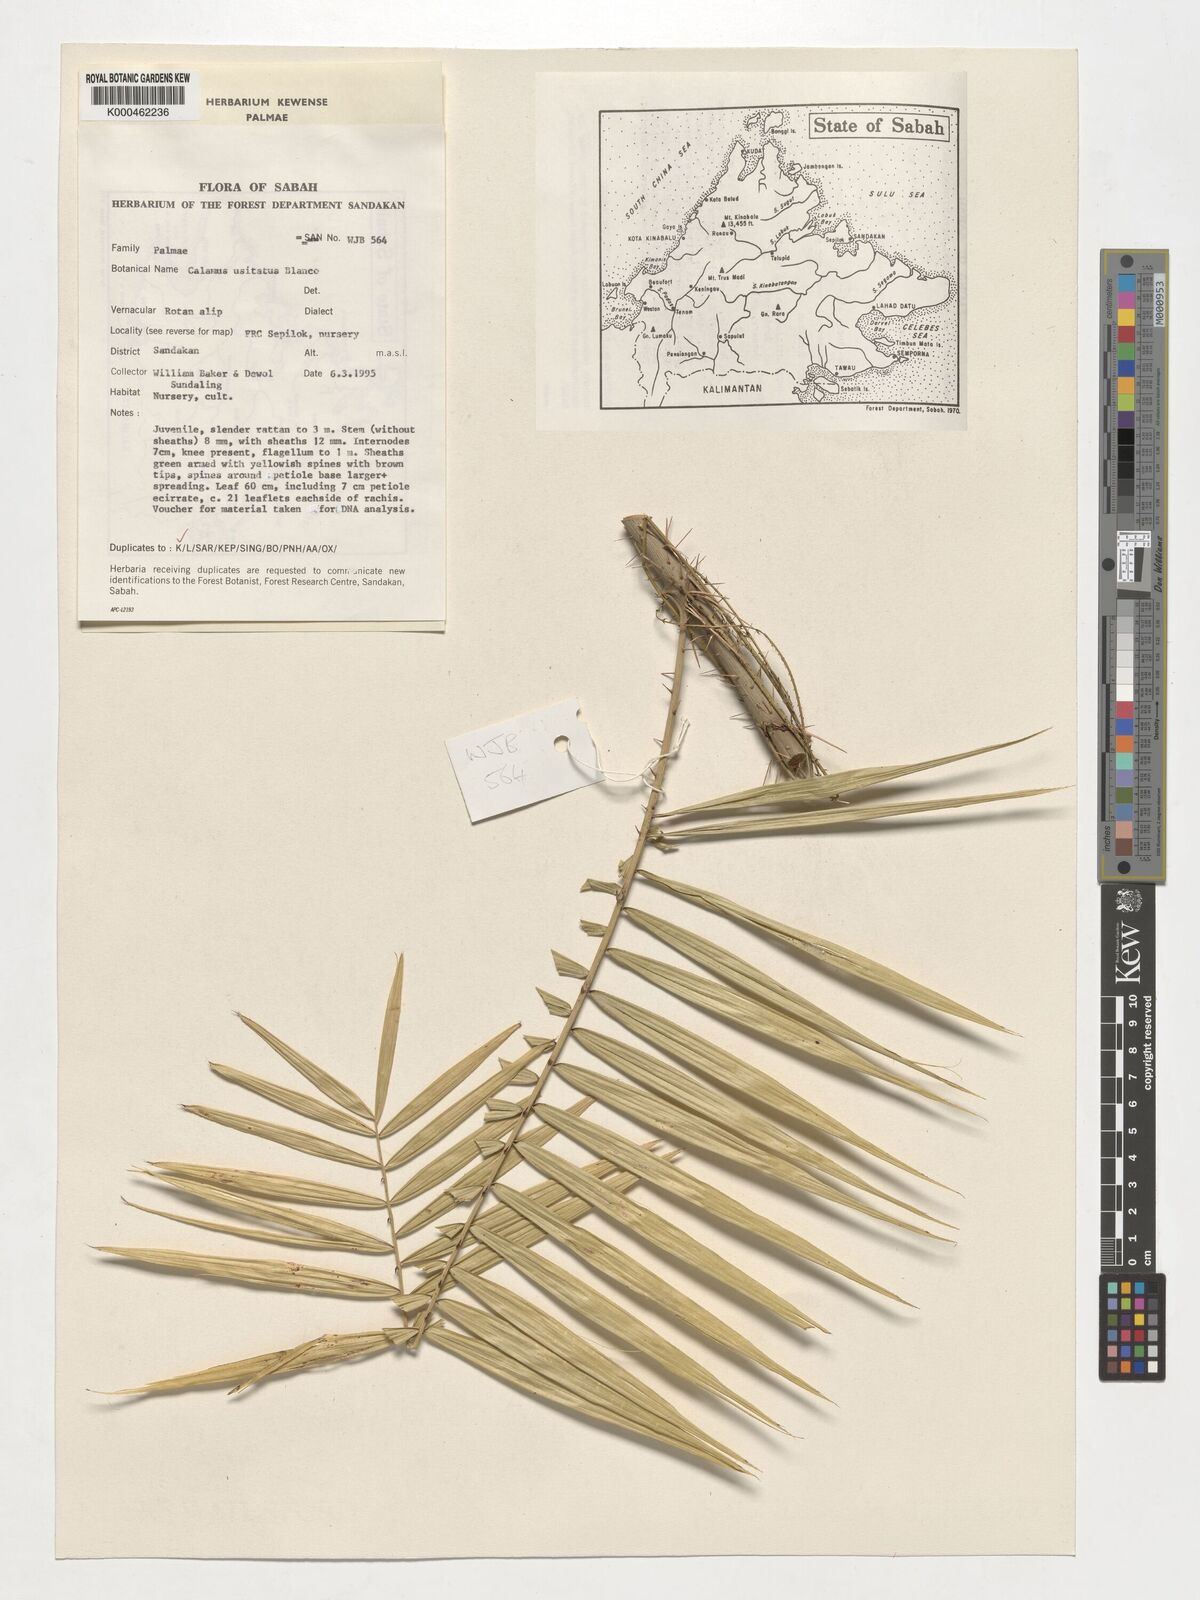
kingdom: Plantae
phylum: Tracheophyta
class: Liliopsida
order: Arecales
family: Arecaceae
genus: Calamus
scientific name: Calamus usitatus
